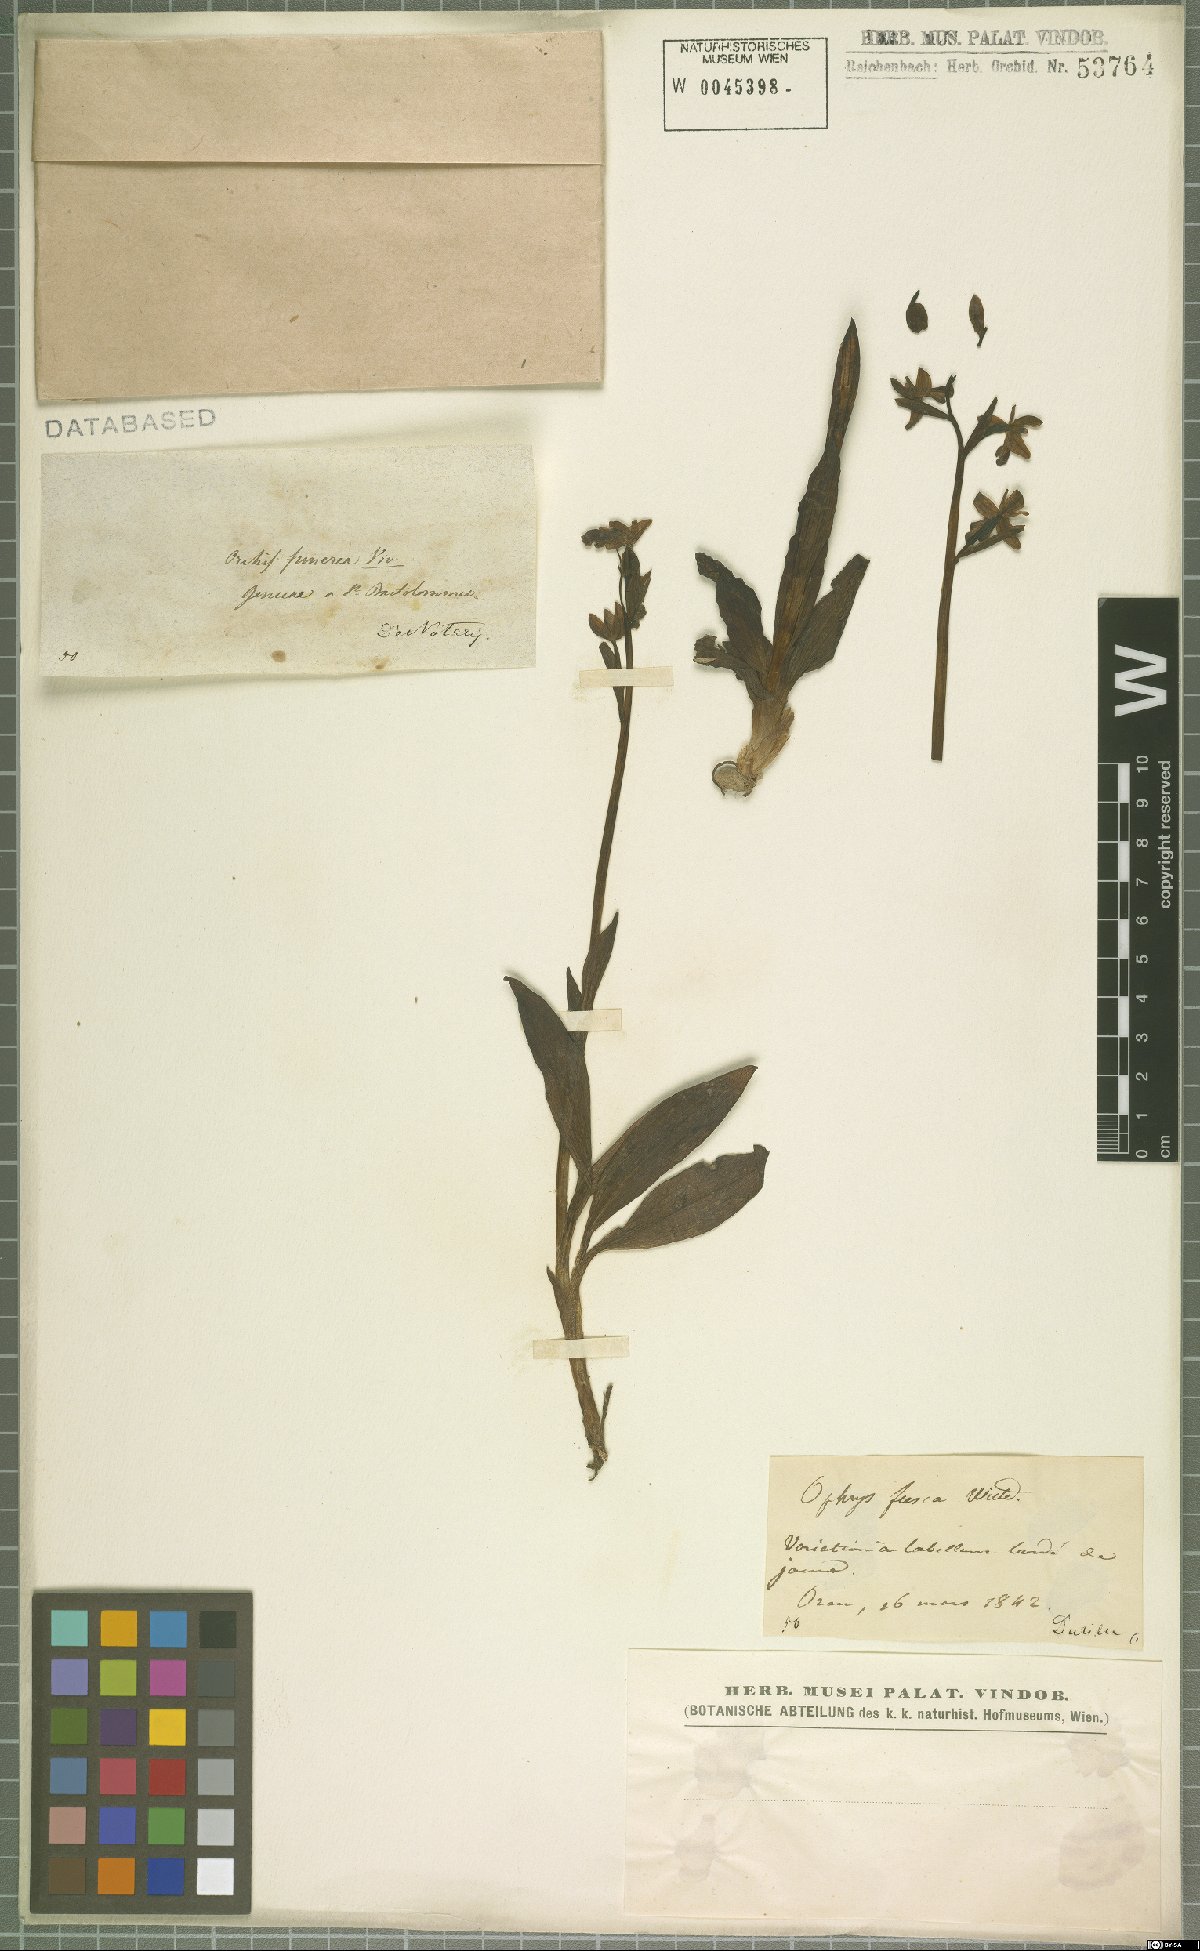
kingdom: Plantae
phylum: Tracheophyta
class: Liliopsida
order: Asparagales
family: Orchidaceae
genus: Ophrys
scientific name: Ophrys fusca
